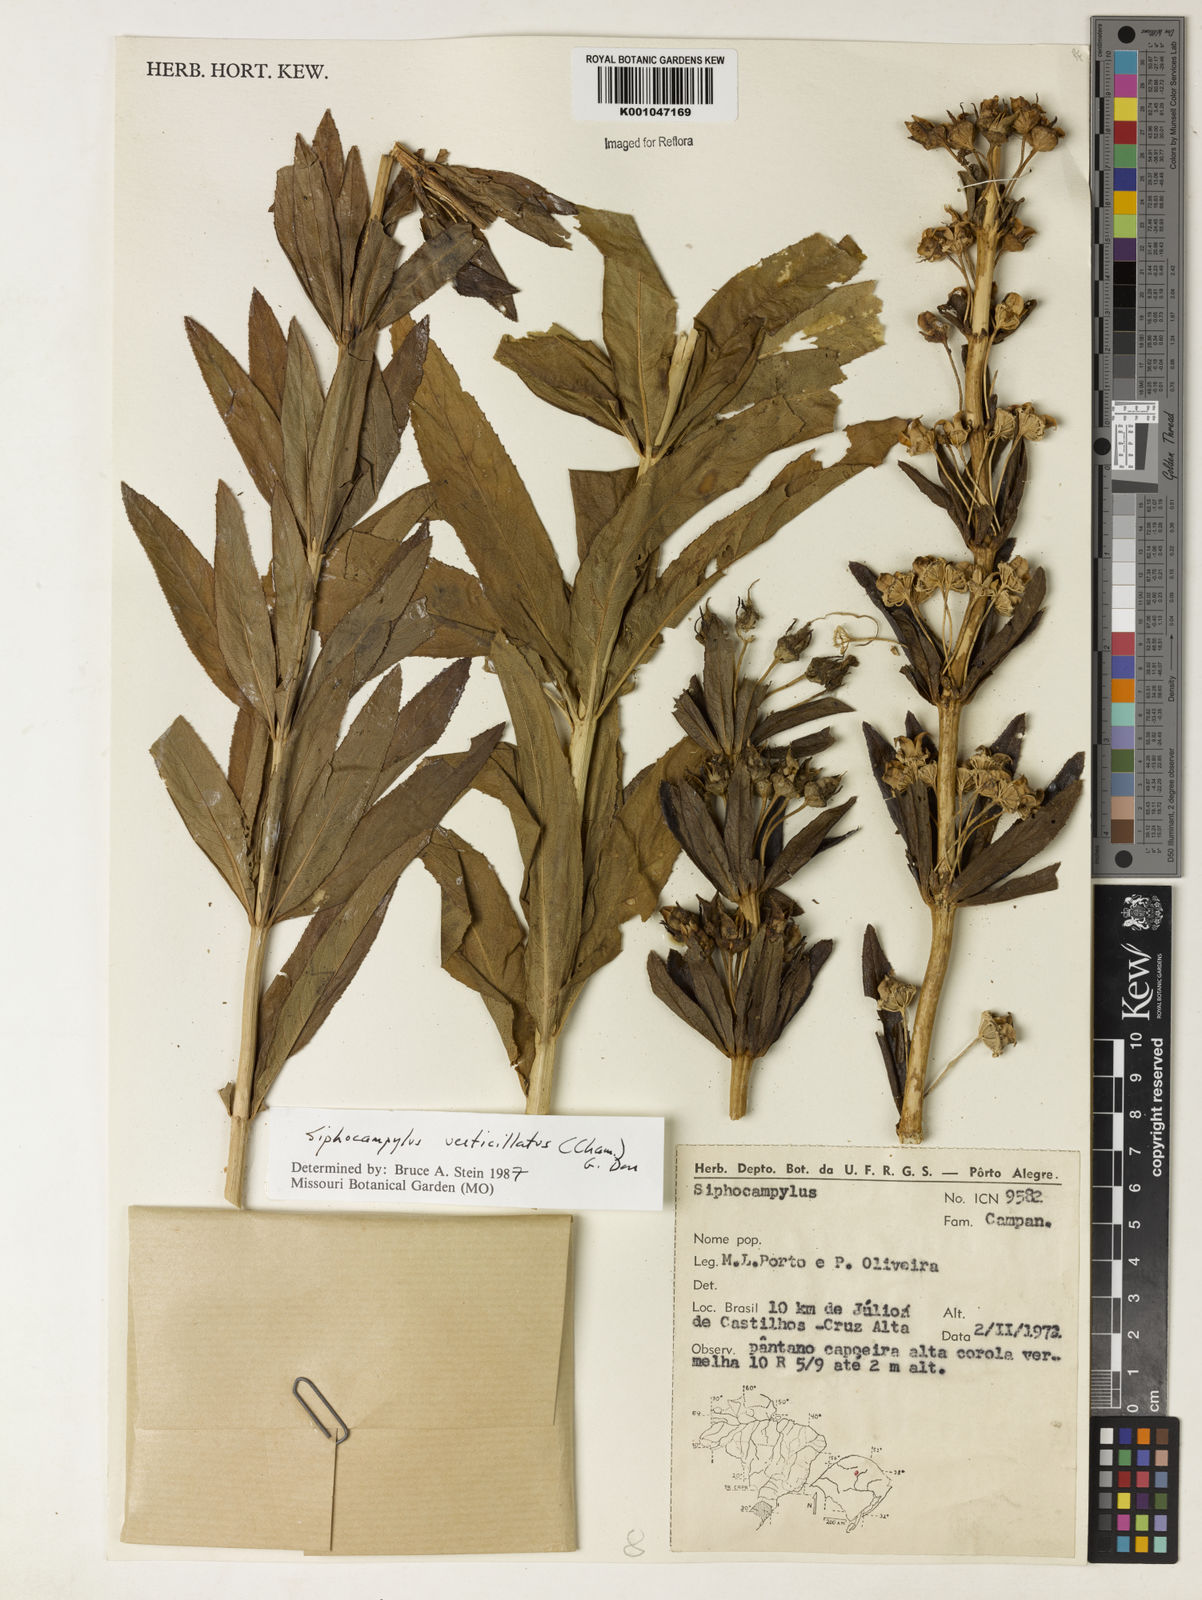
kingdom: Plantae
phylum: Tracheophyta
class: Magnoliopsida
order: Asterales
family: Campanulaceae
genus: Siphocampylus
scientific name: Siphocampylus verticillatus
